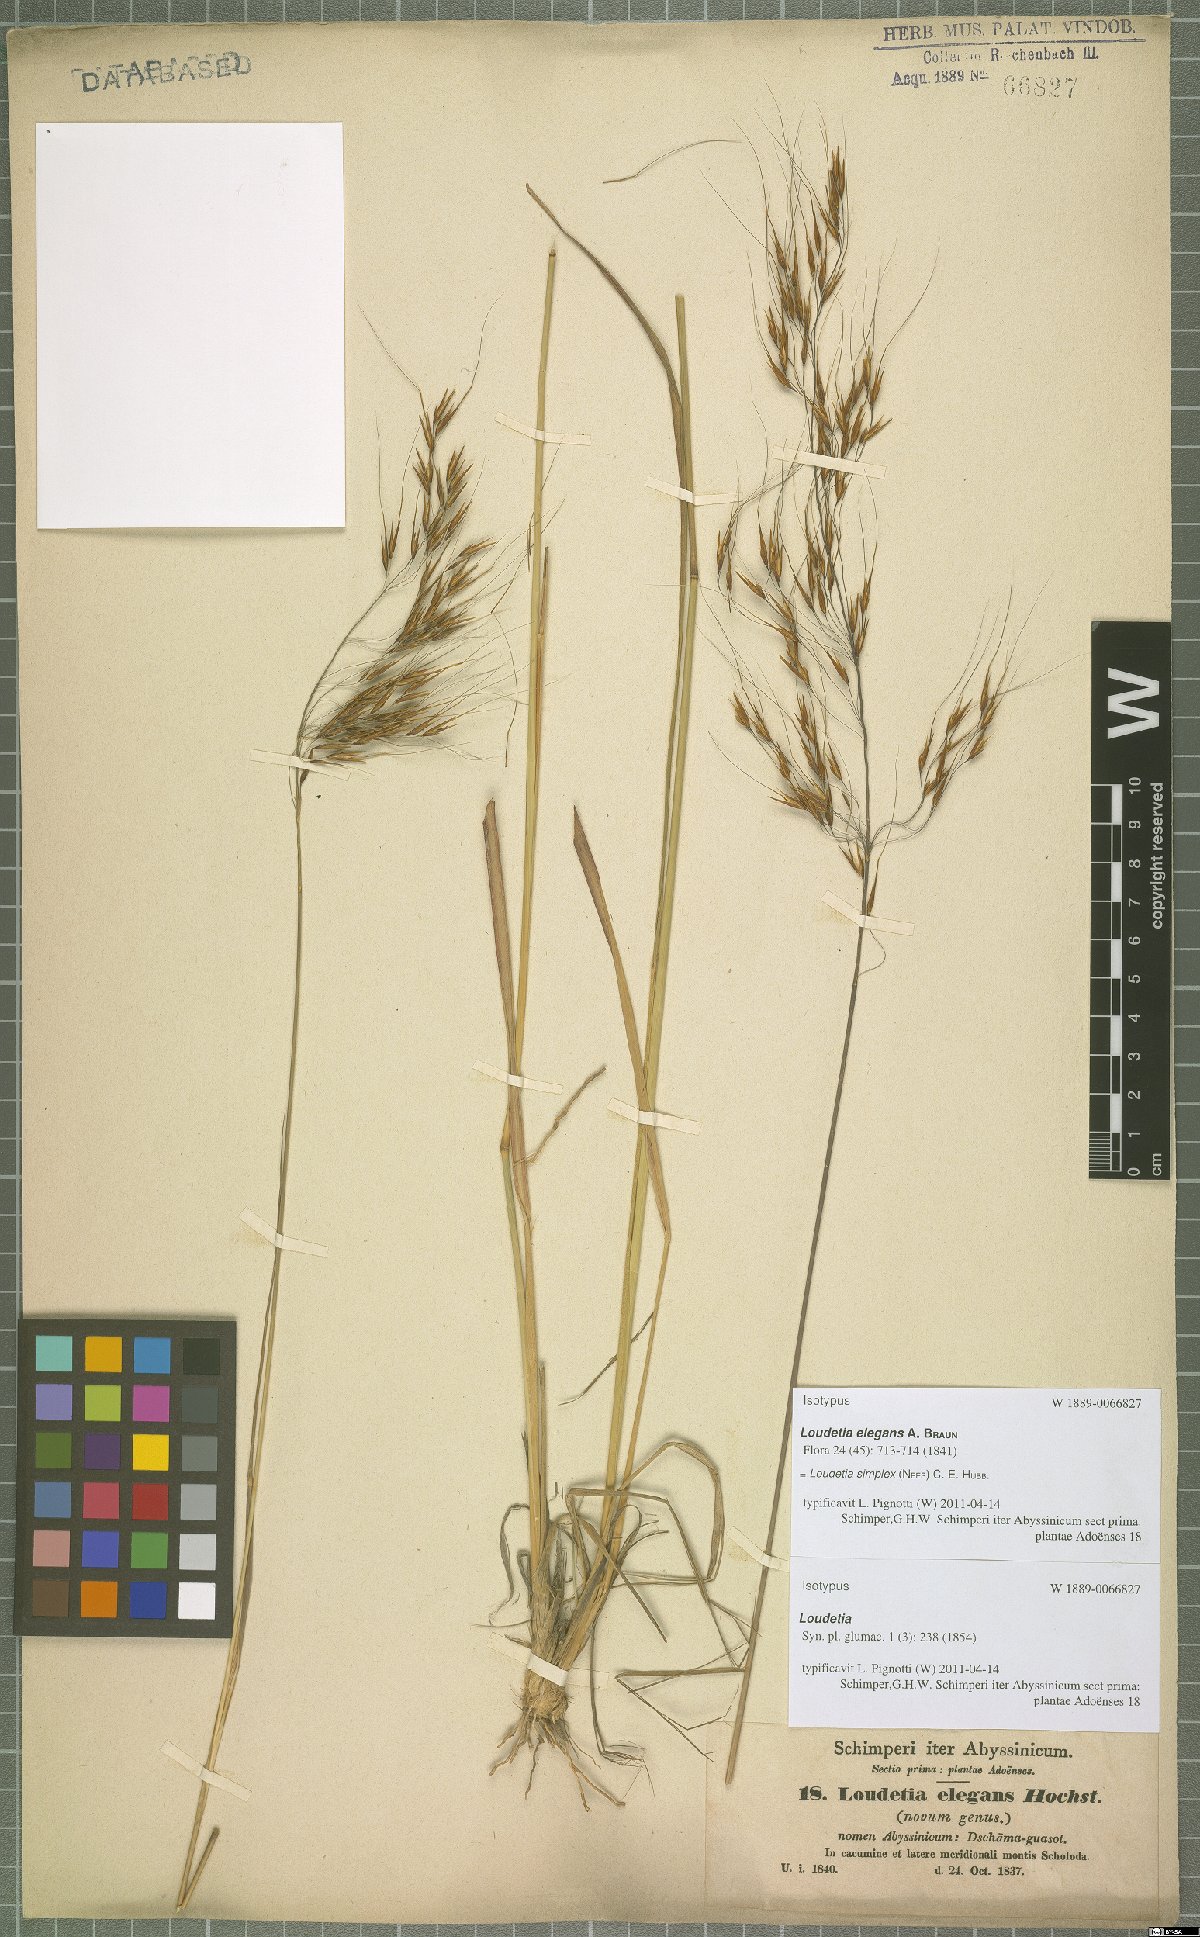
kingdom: Plantae
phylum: Tracheophyta
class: Liliopsida
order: Poales
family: Poaceae
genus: Loudetia
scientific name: Loudetia simplex
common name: Common russet grass
